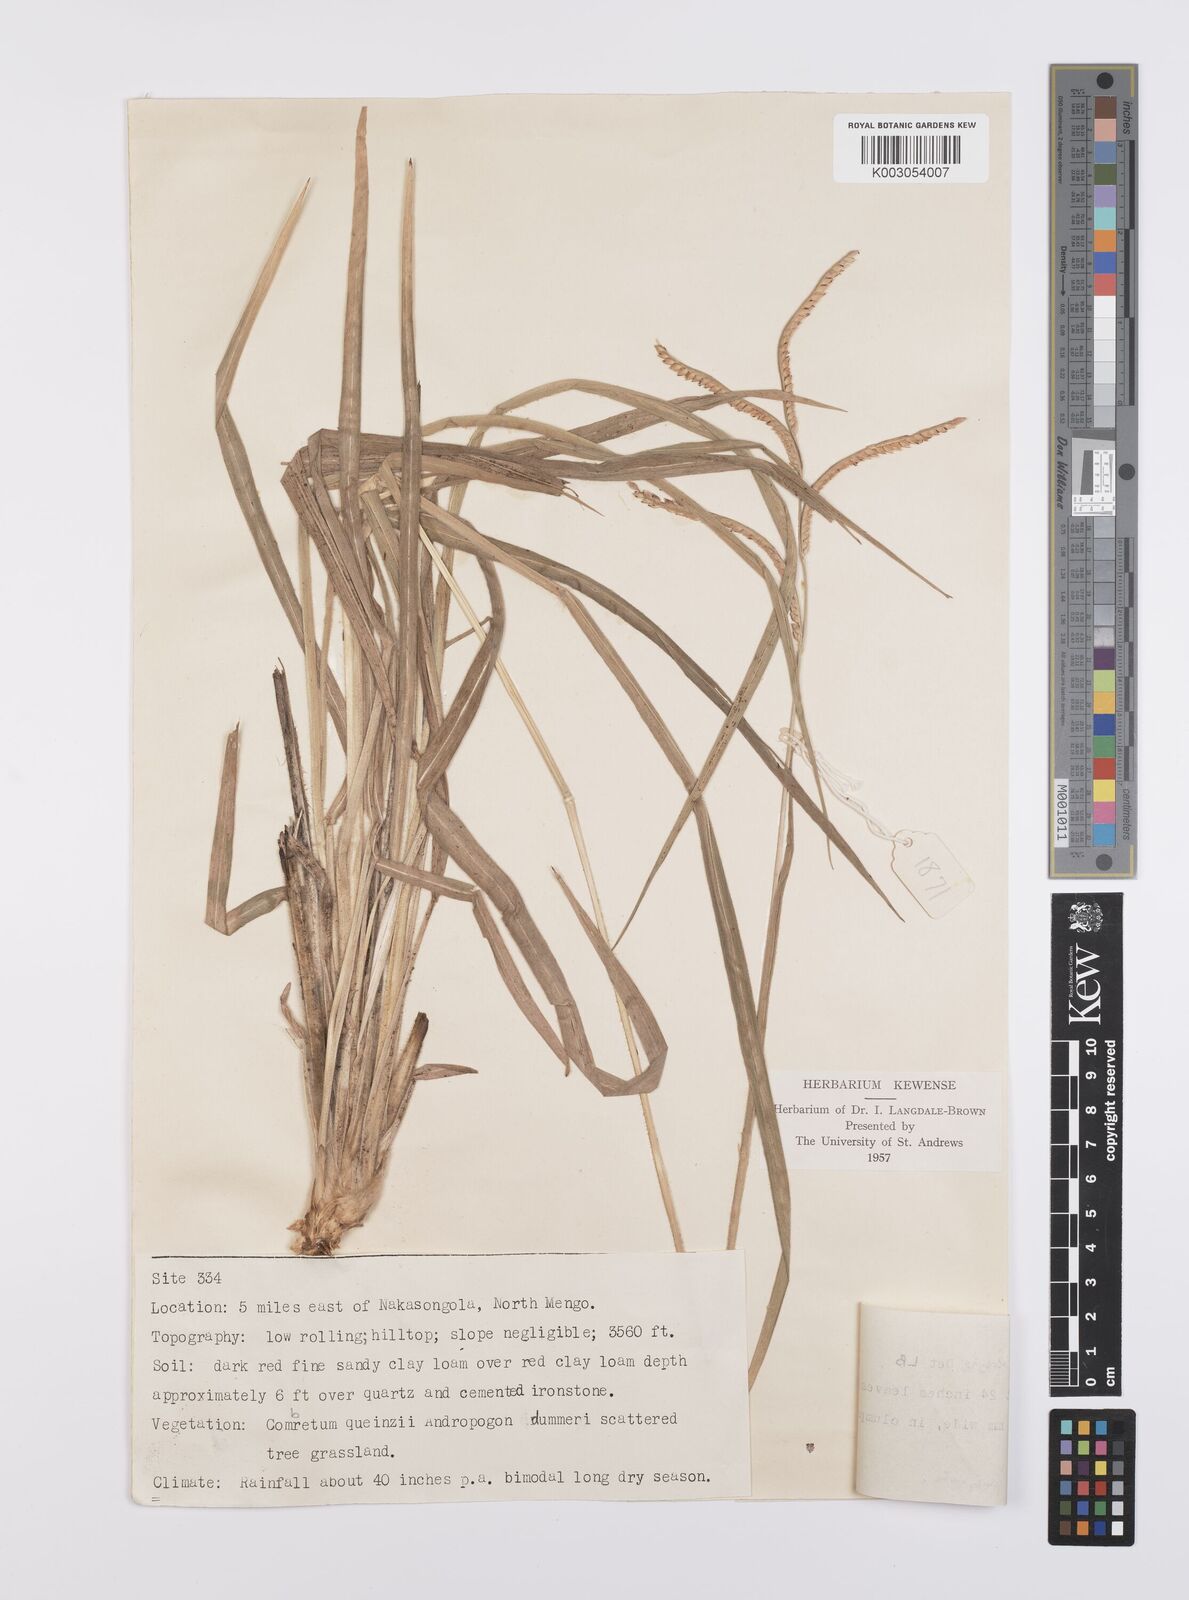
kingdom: Plantae
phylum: Tracheophyta
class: Liliopsida
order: Poales
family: Poaceae
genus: Urochloa
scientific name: Urochloa platynota
